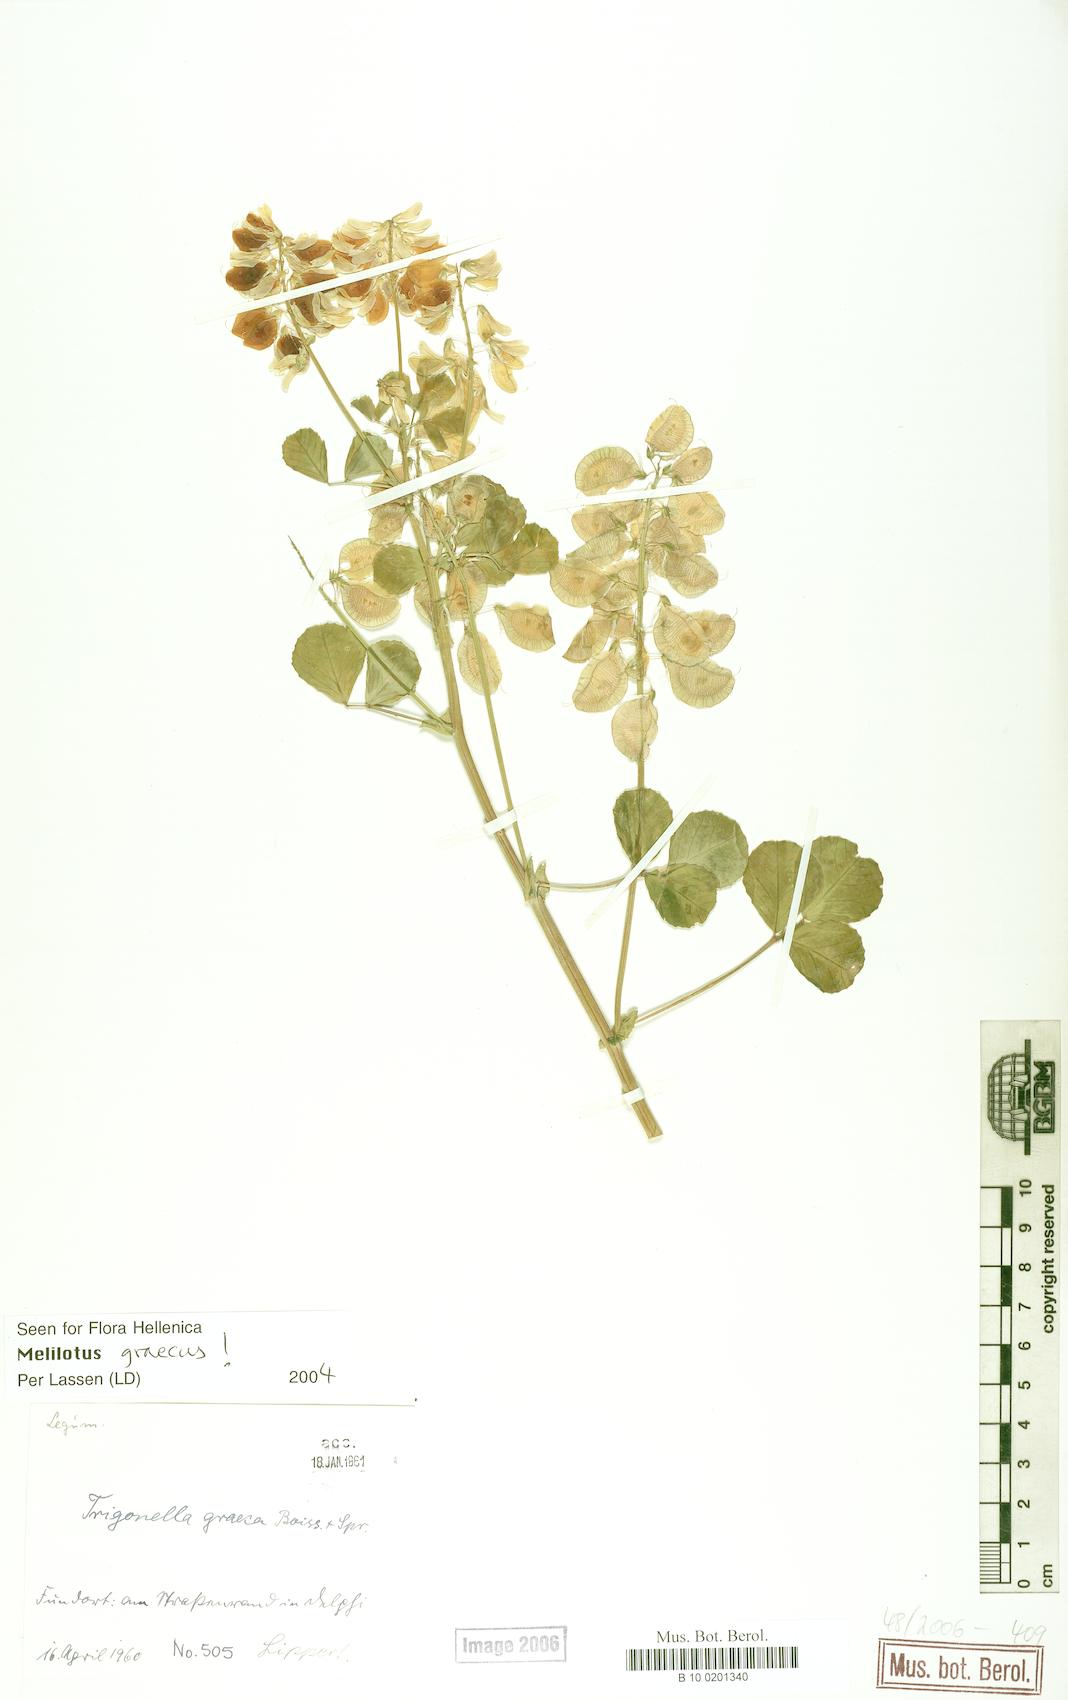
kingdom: Plantae
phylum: Tracheophyta
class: Magnoliopsida
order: Fabales
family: Fabaceae
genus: Trigonella
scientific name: Trigonella graeca
